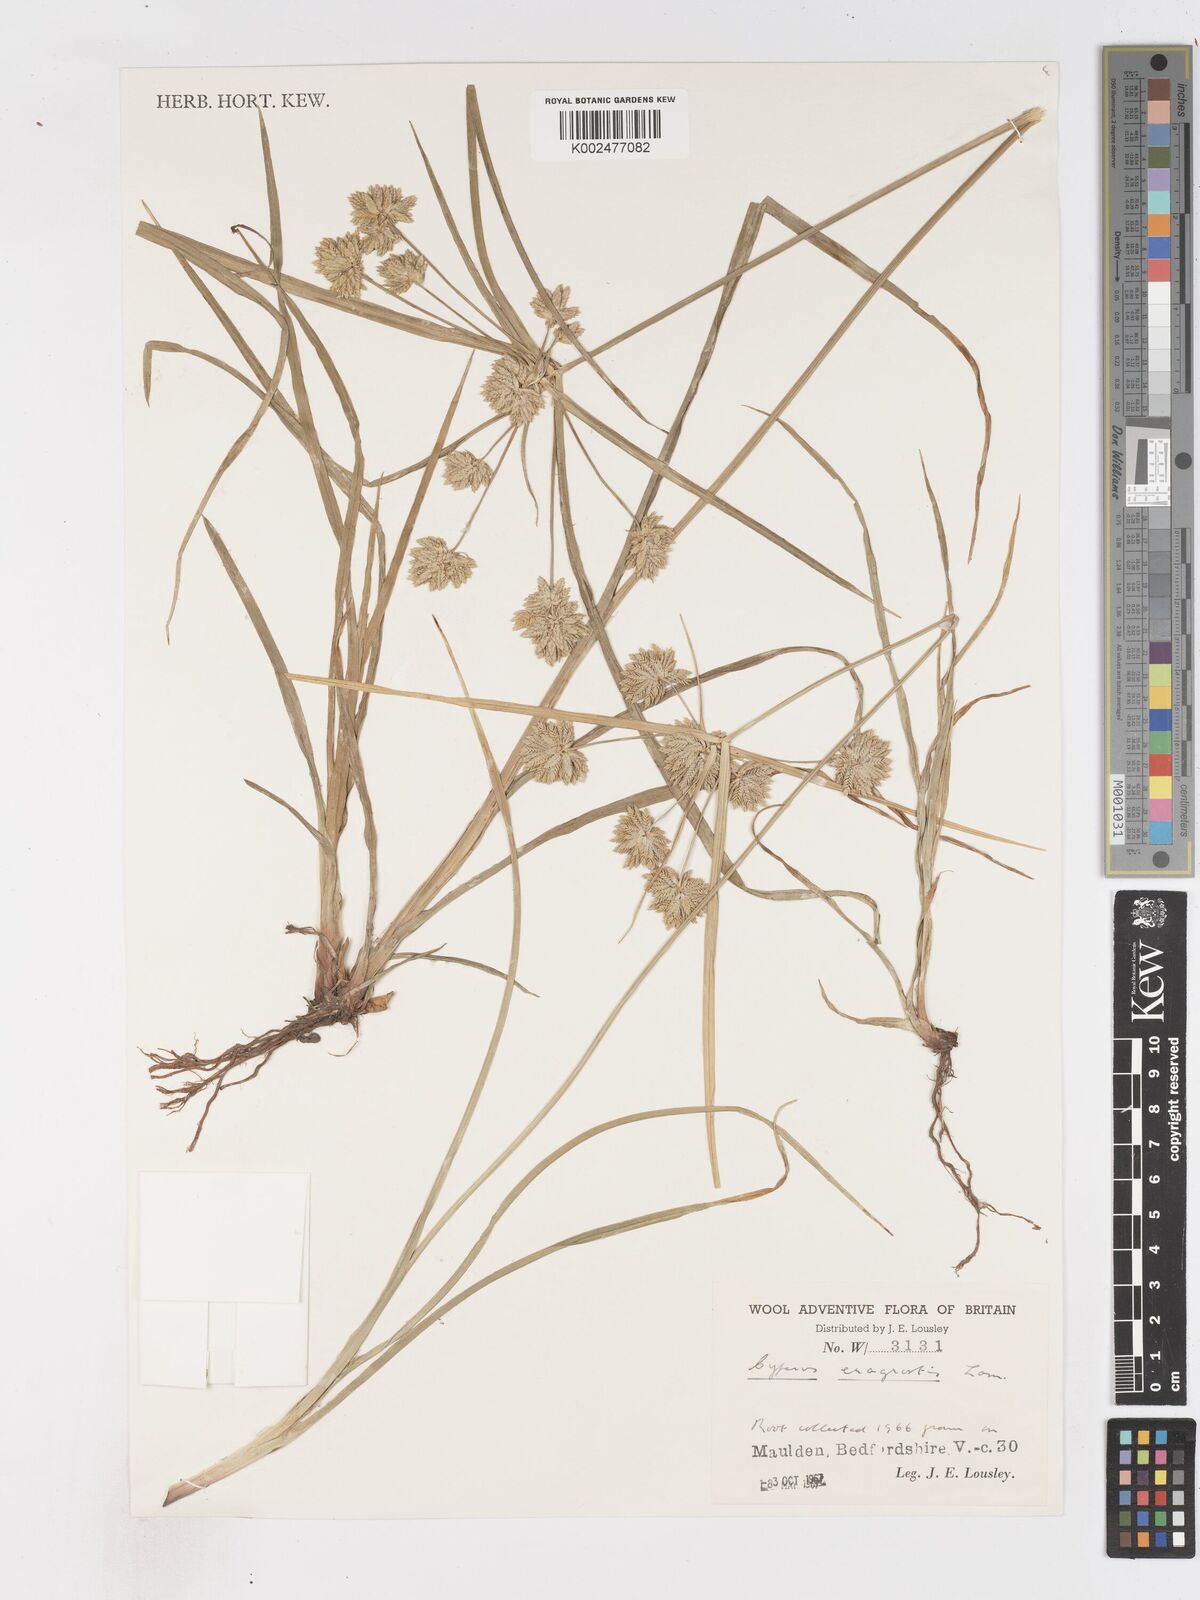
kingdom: Plantae
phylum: Tracheophyta
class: Liliopsida
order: Poales
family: Cyperaceae
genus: Cyperus
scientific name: Cyperus eragrostis
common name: Tall flatsedge
